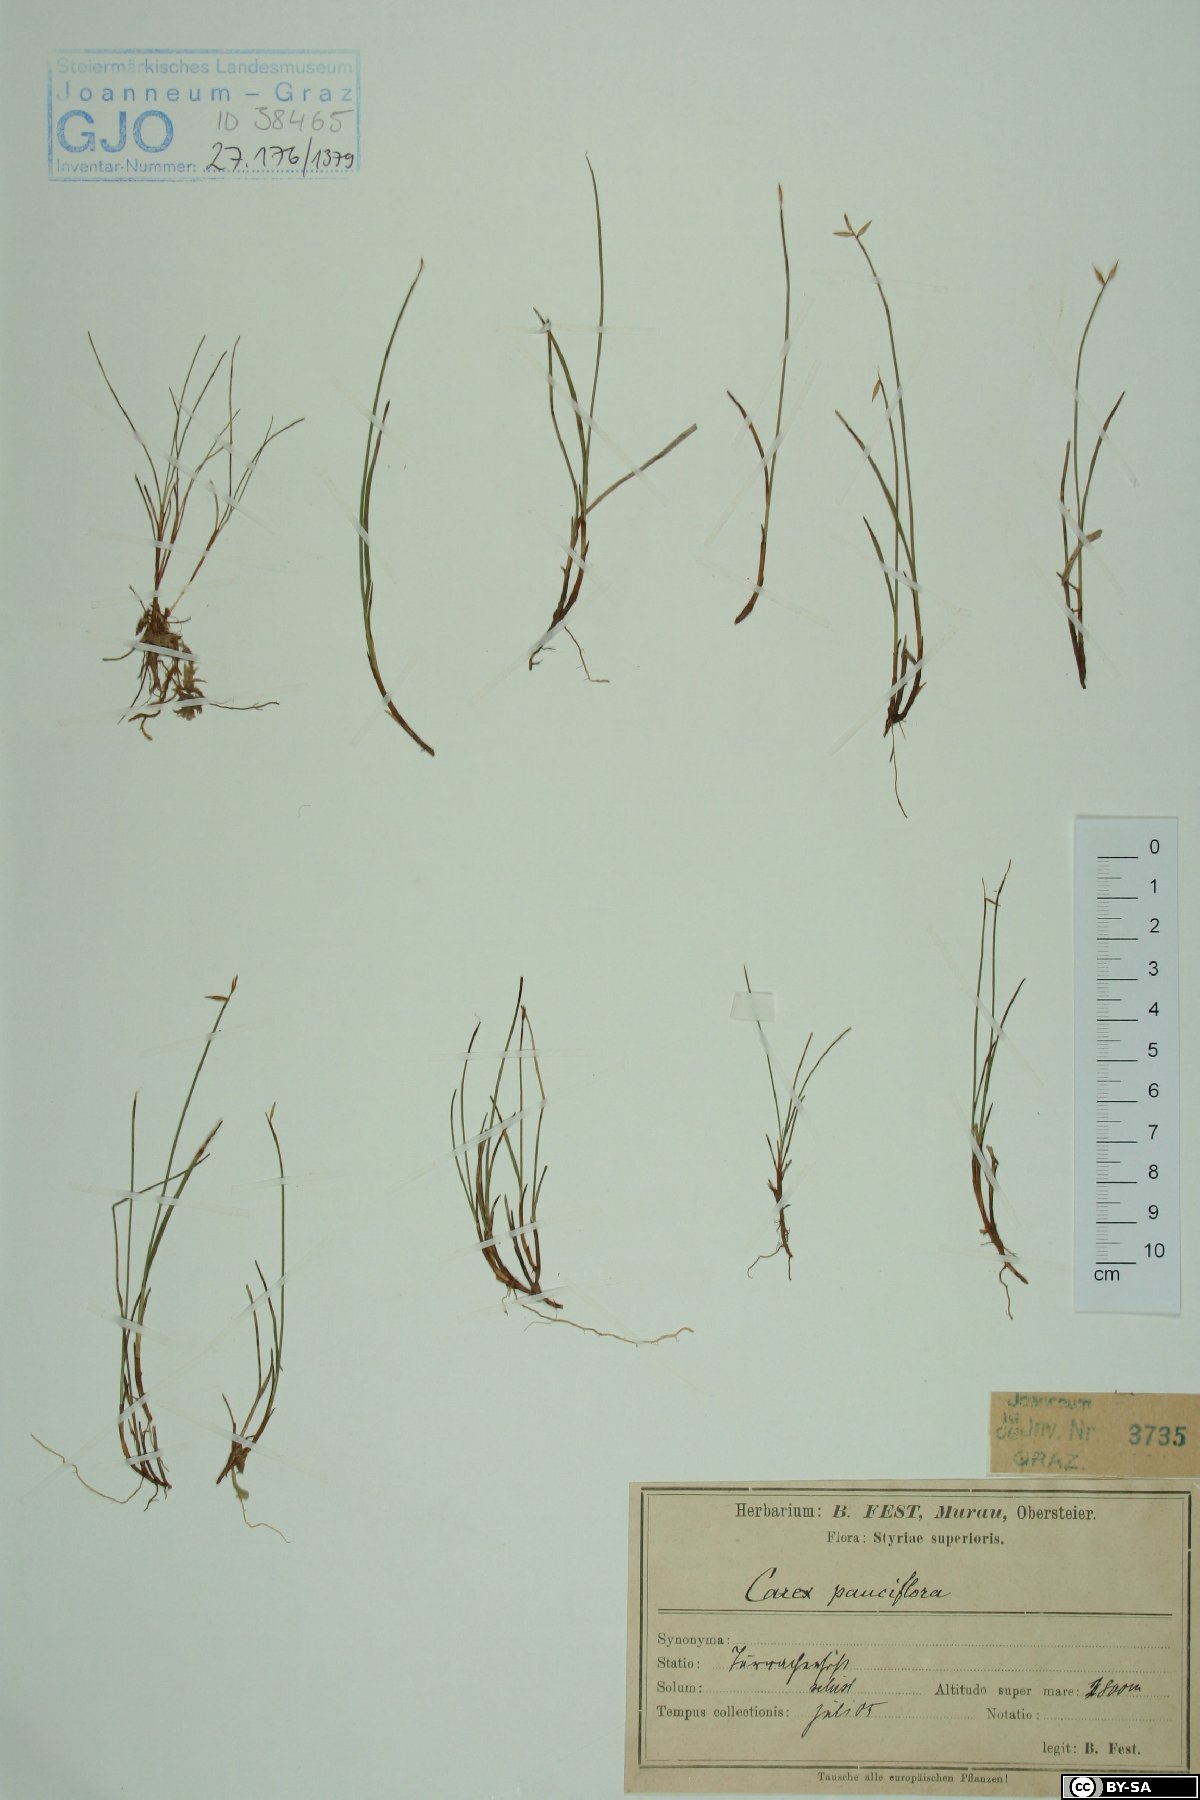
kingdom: Plantae
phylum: Tracheophyta
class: Liliopsida
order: Poales
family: Cyperaceae
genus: Carex
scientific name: Carex pauciflora
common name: Few-flowered sedge
